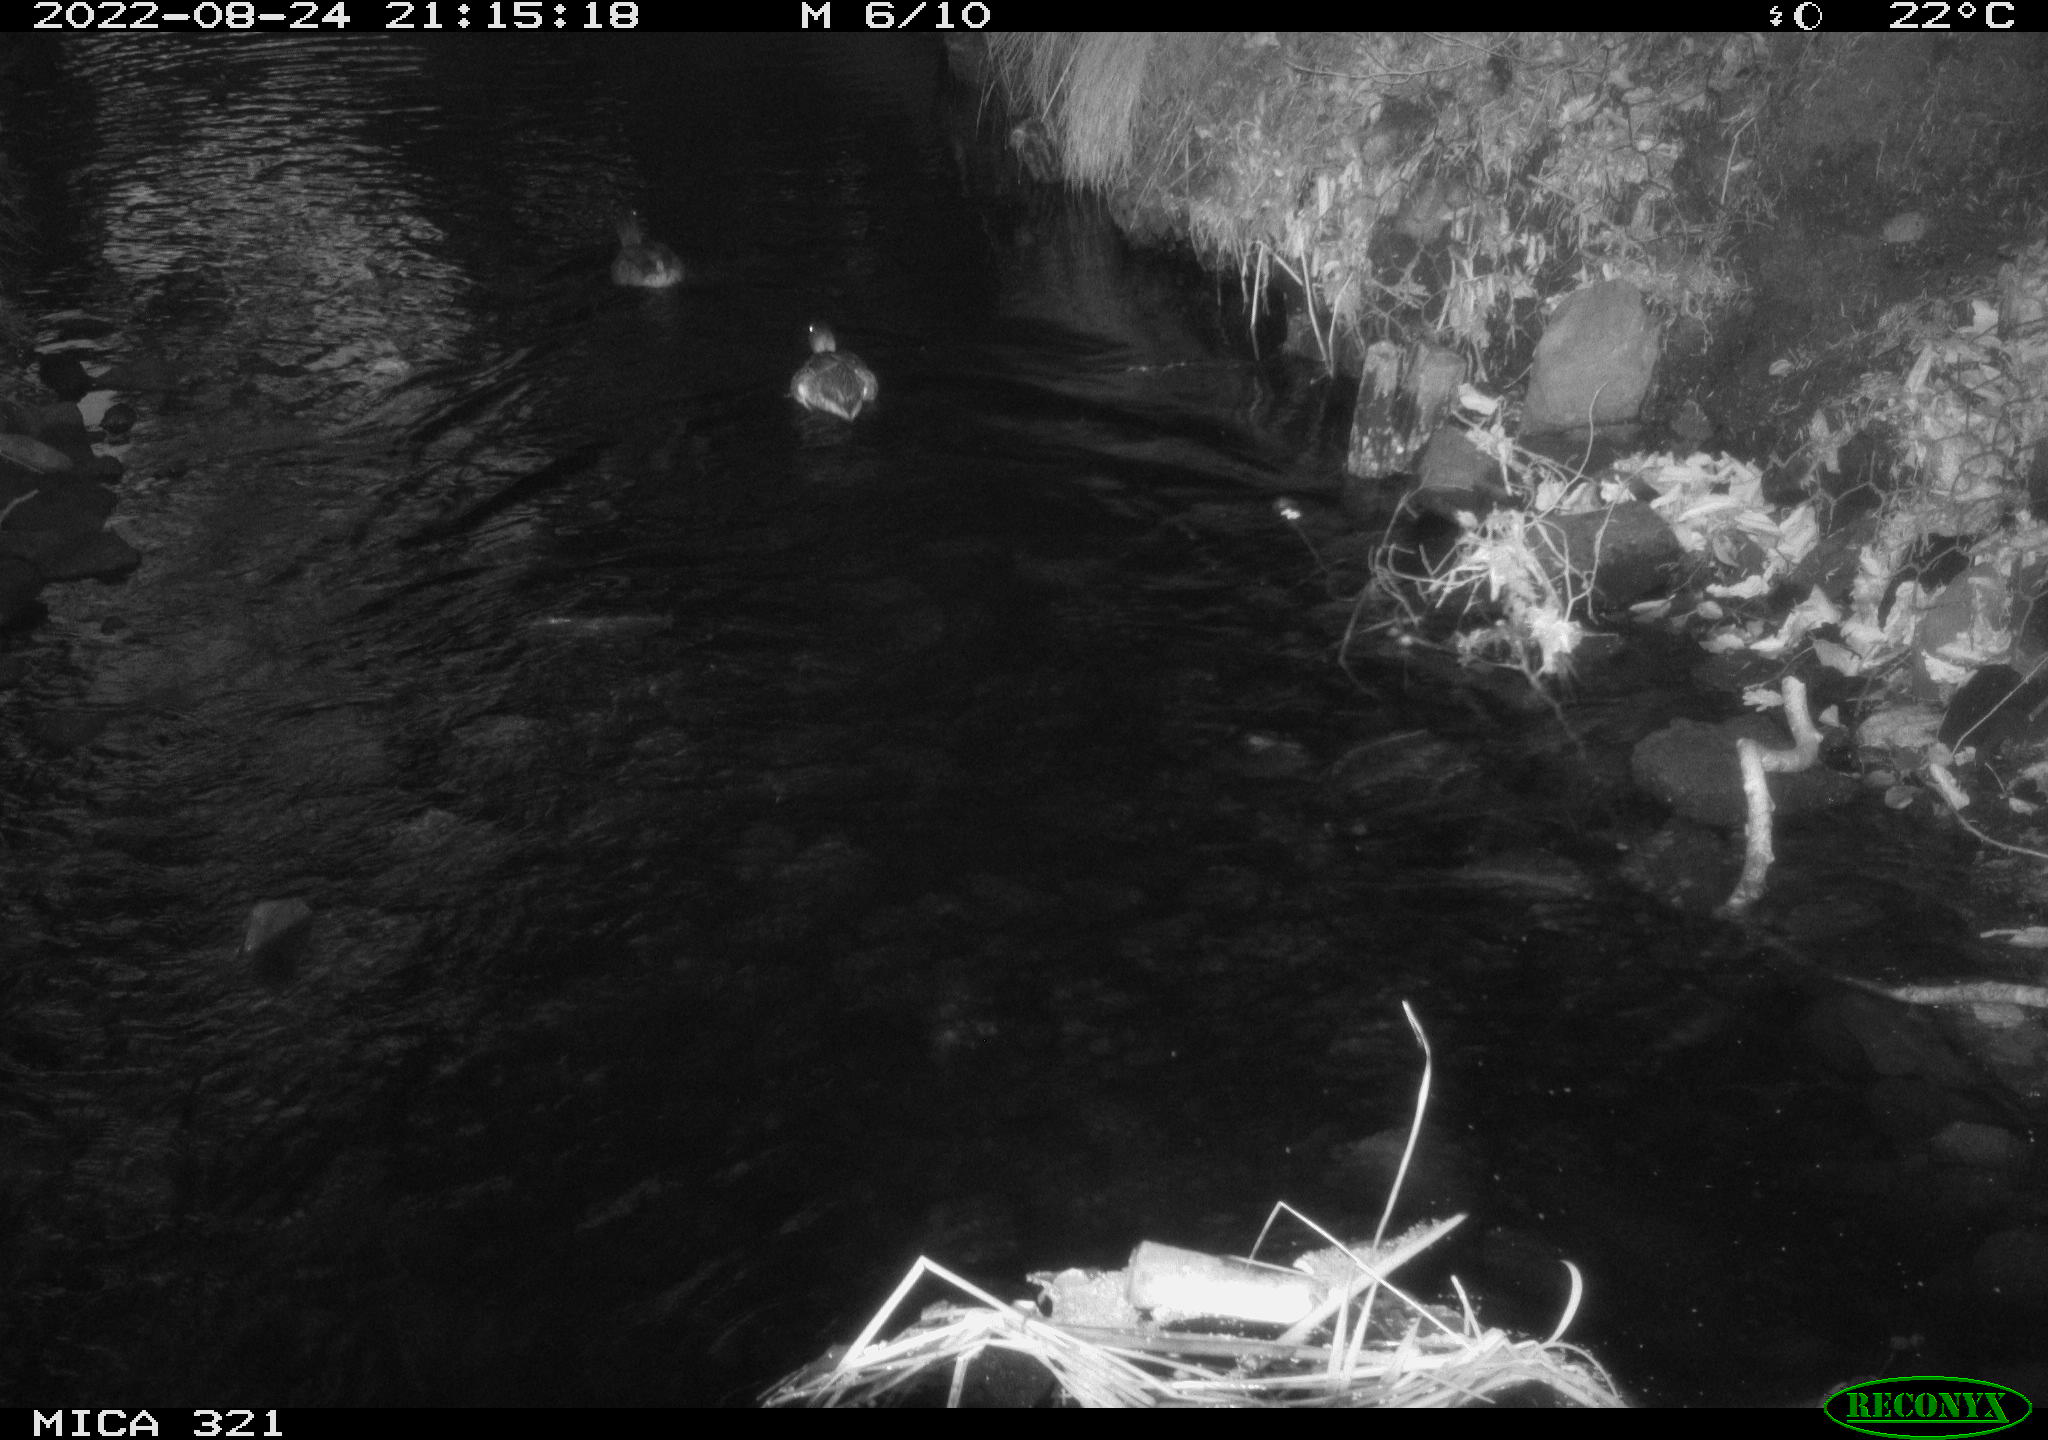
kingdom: Animalia
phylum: Chordata
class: Aves
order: Anseriformes
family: Anatidae
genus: Anas
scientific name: Anas platyrhynchos
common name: Mallard
